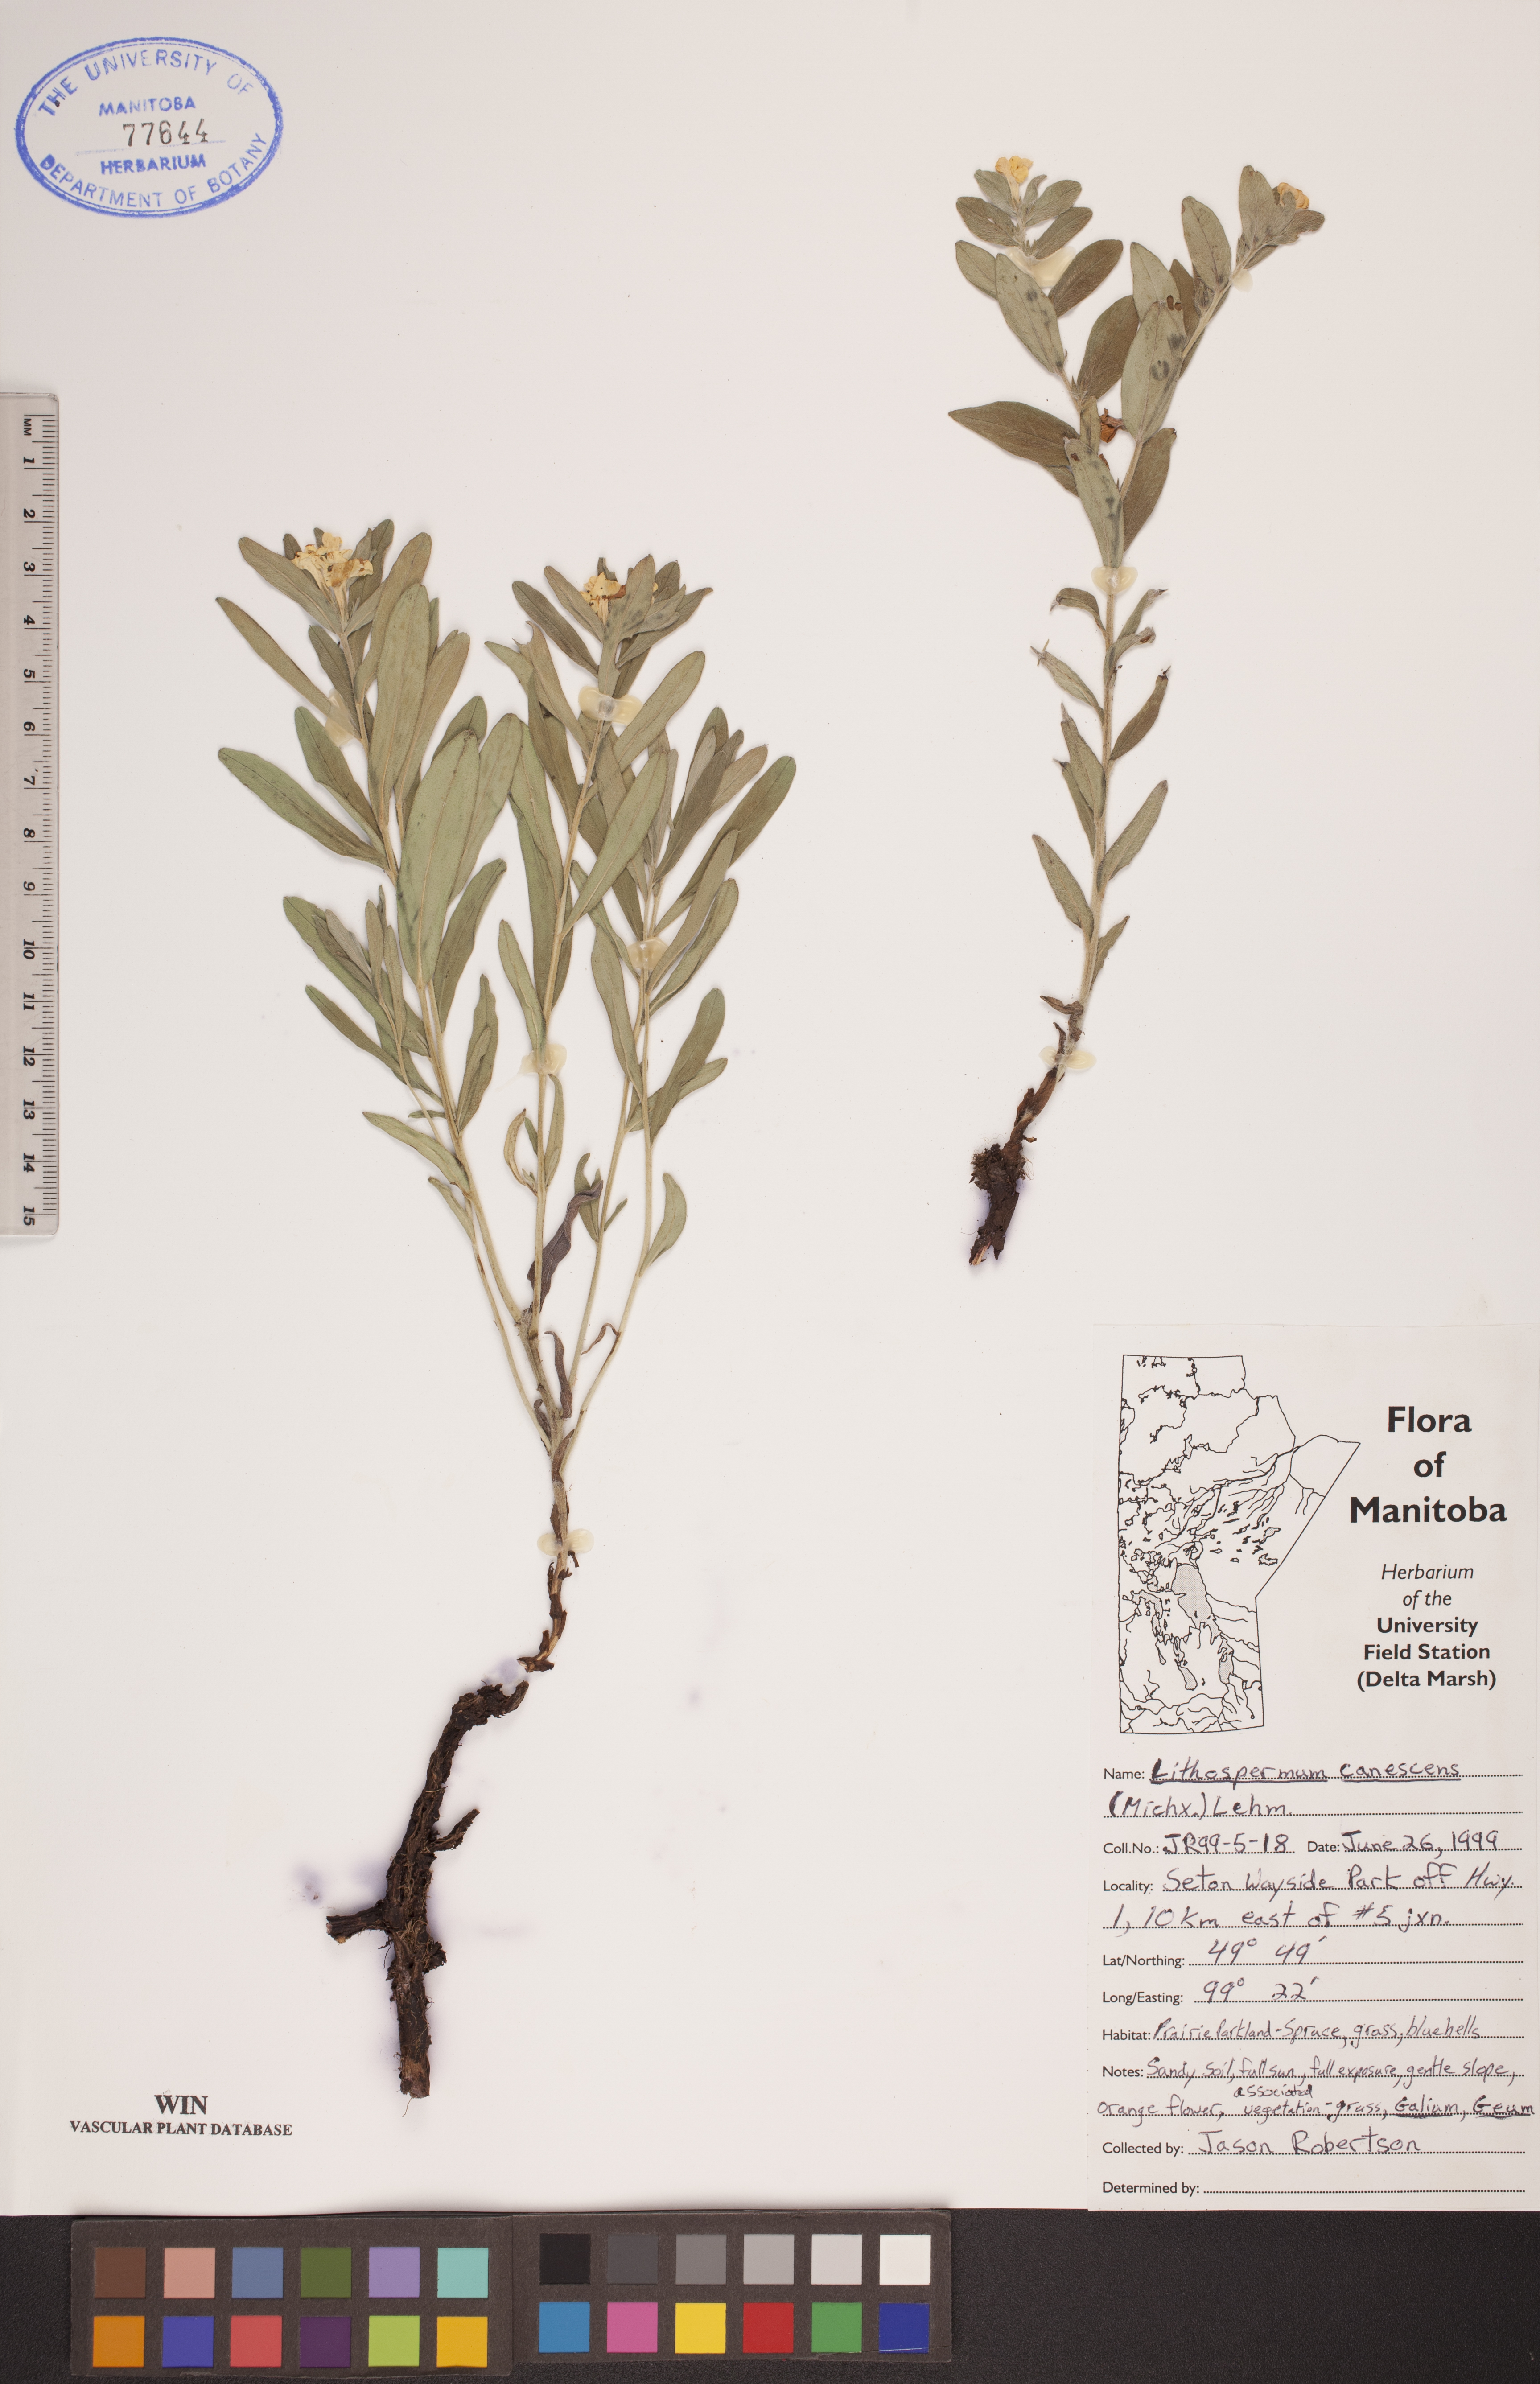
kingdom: Plantae
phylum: Tracheophyta
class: Magnoliopsida
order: Boraginales
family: Boraginaceae
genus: Lithospermum
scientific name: Lithospermum canescens
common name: Hoary puccoon
